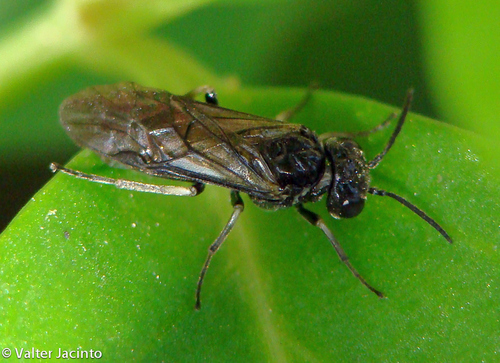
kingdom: Animalia
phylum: Arthropoda
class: Insecta
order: Hymenoptera
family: Tenthredinidae
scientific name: Tenthredinidae
